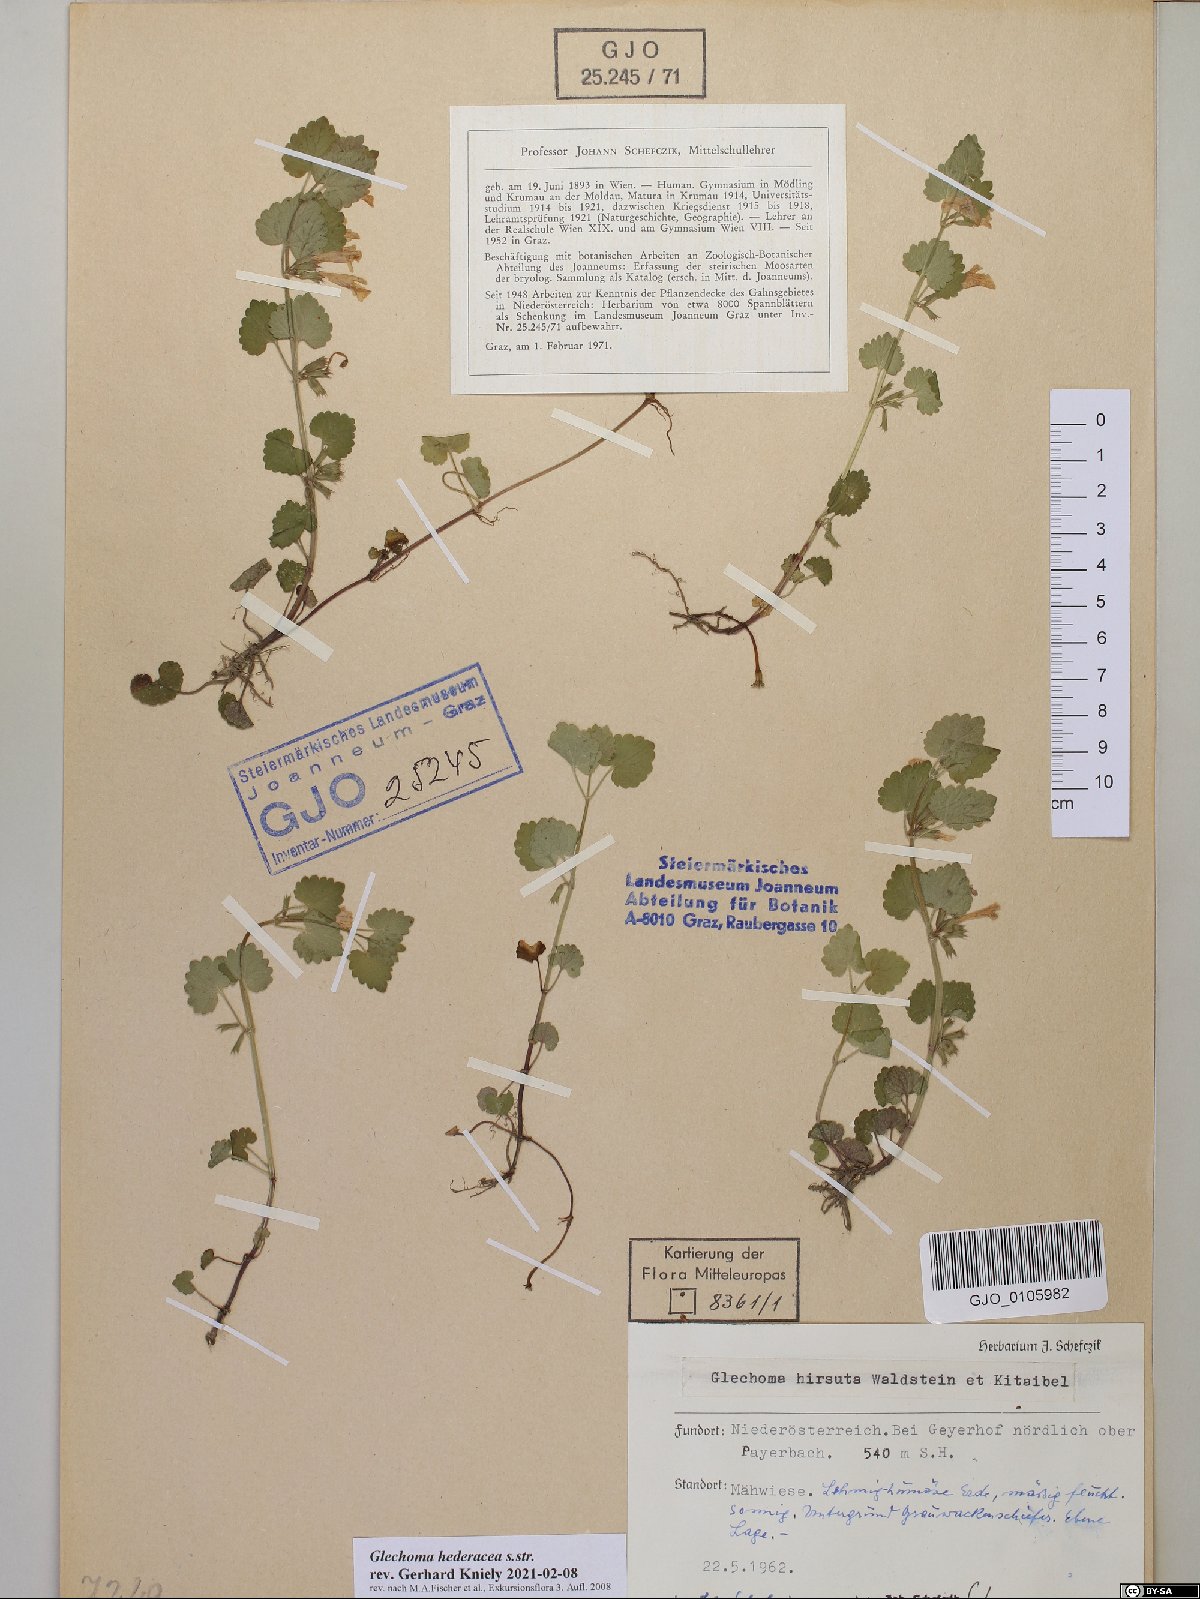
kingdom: Plantae
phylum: Tracheophyta
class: Magnoliopsida
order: Lamiales
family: Lamiaceae
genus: Glechoma
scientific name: Glechoma hederacea
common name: Ground ivy
